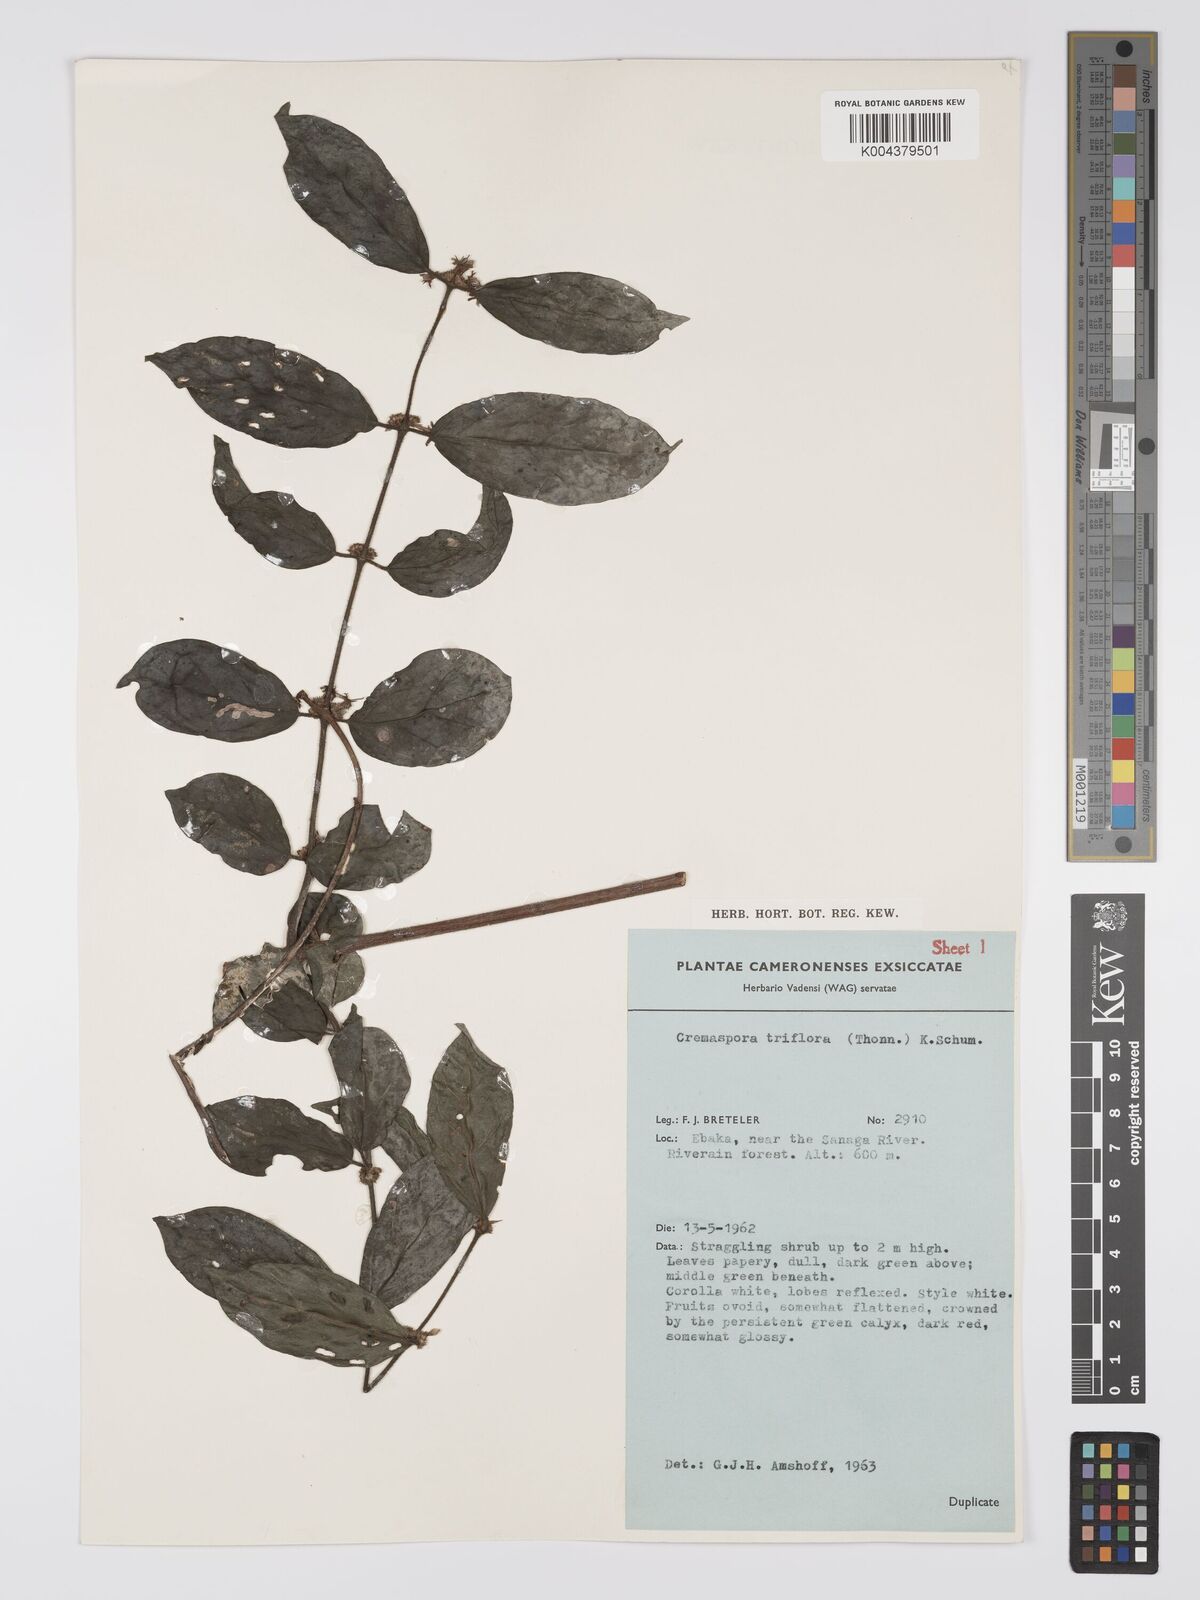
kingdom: Plantae
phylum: Tracheophyta
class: Magnoliopsida
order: Gentianales
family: Rubiaceae
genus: Cremaspora
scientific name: Cremaspora triflora
